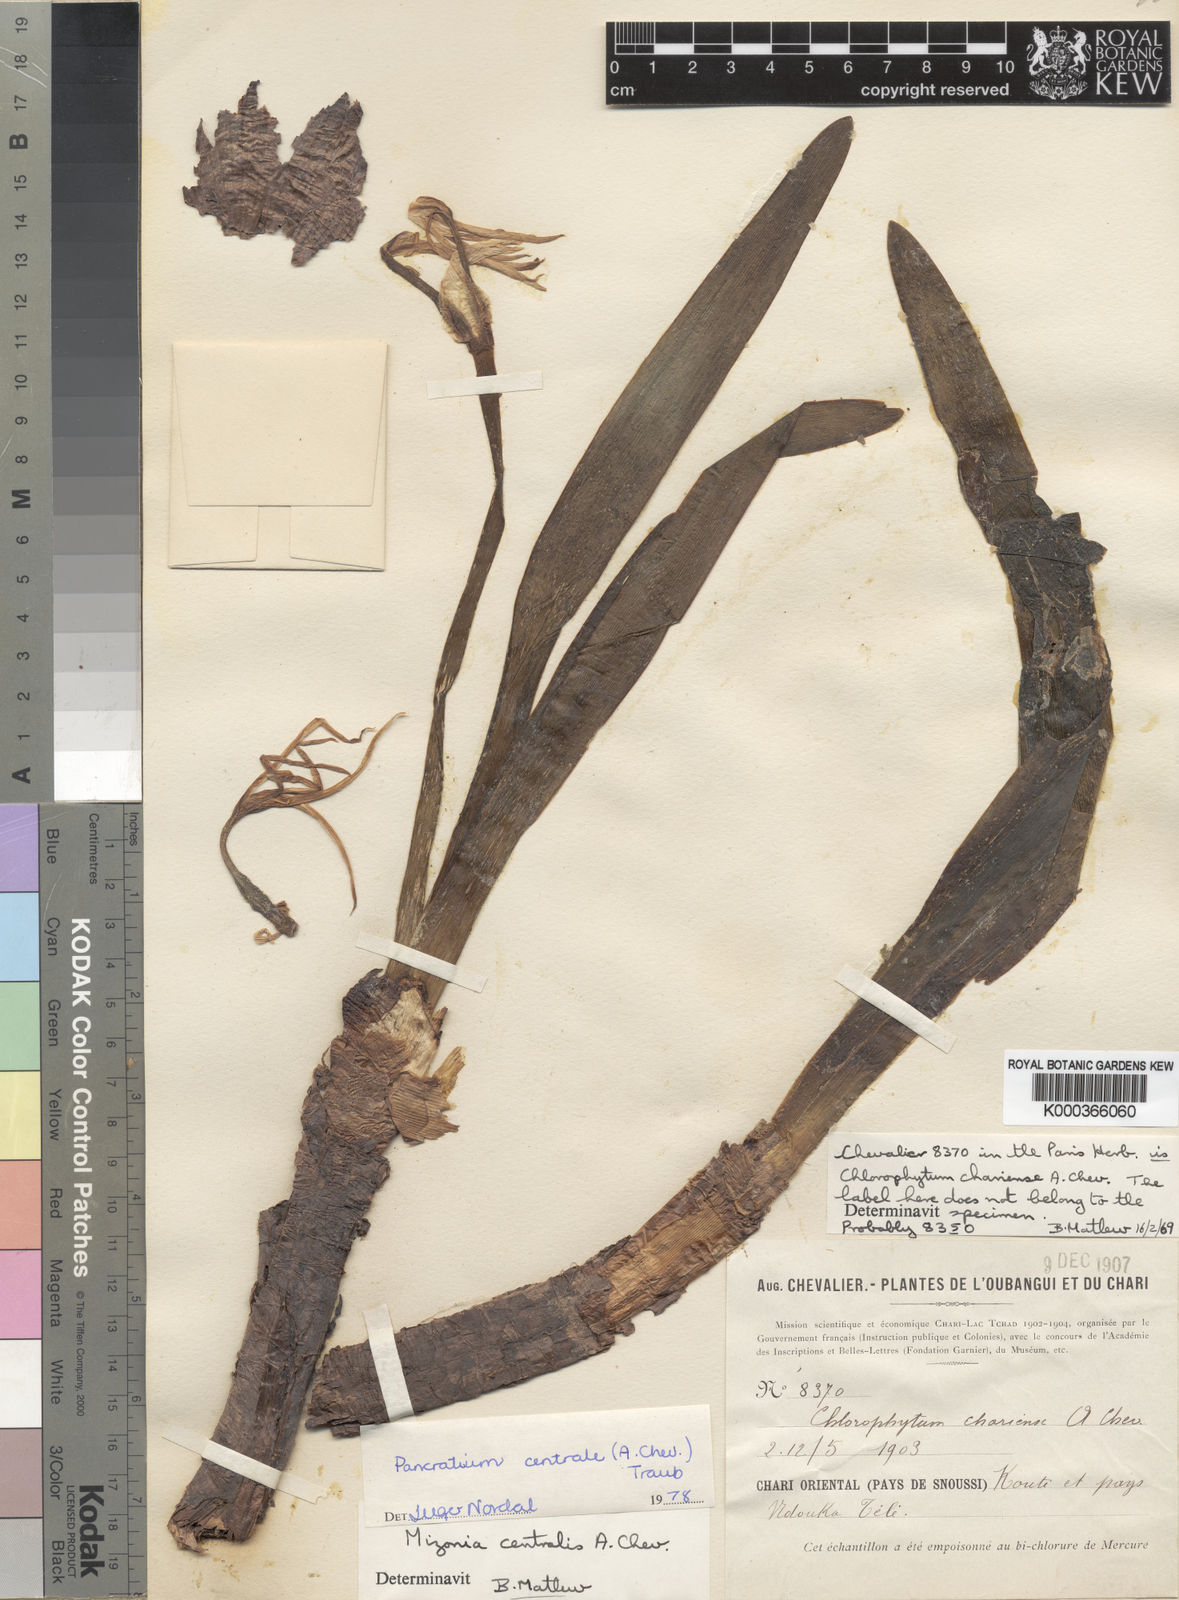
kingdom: Plantae
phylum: Tracheophyta
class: Liliopsida
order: Asparagales
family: Amaryllidaceae
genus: Pancratium
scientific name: Pancratium centrale
